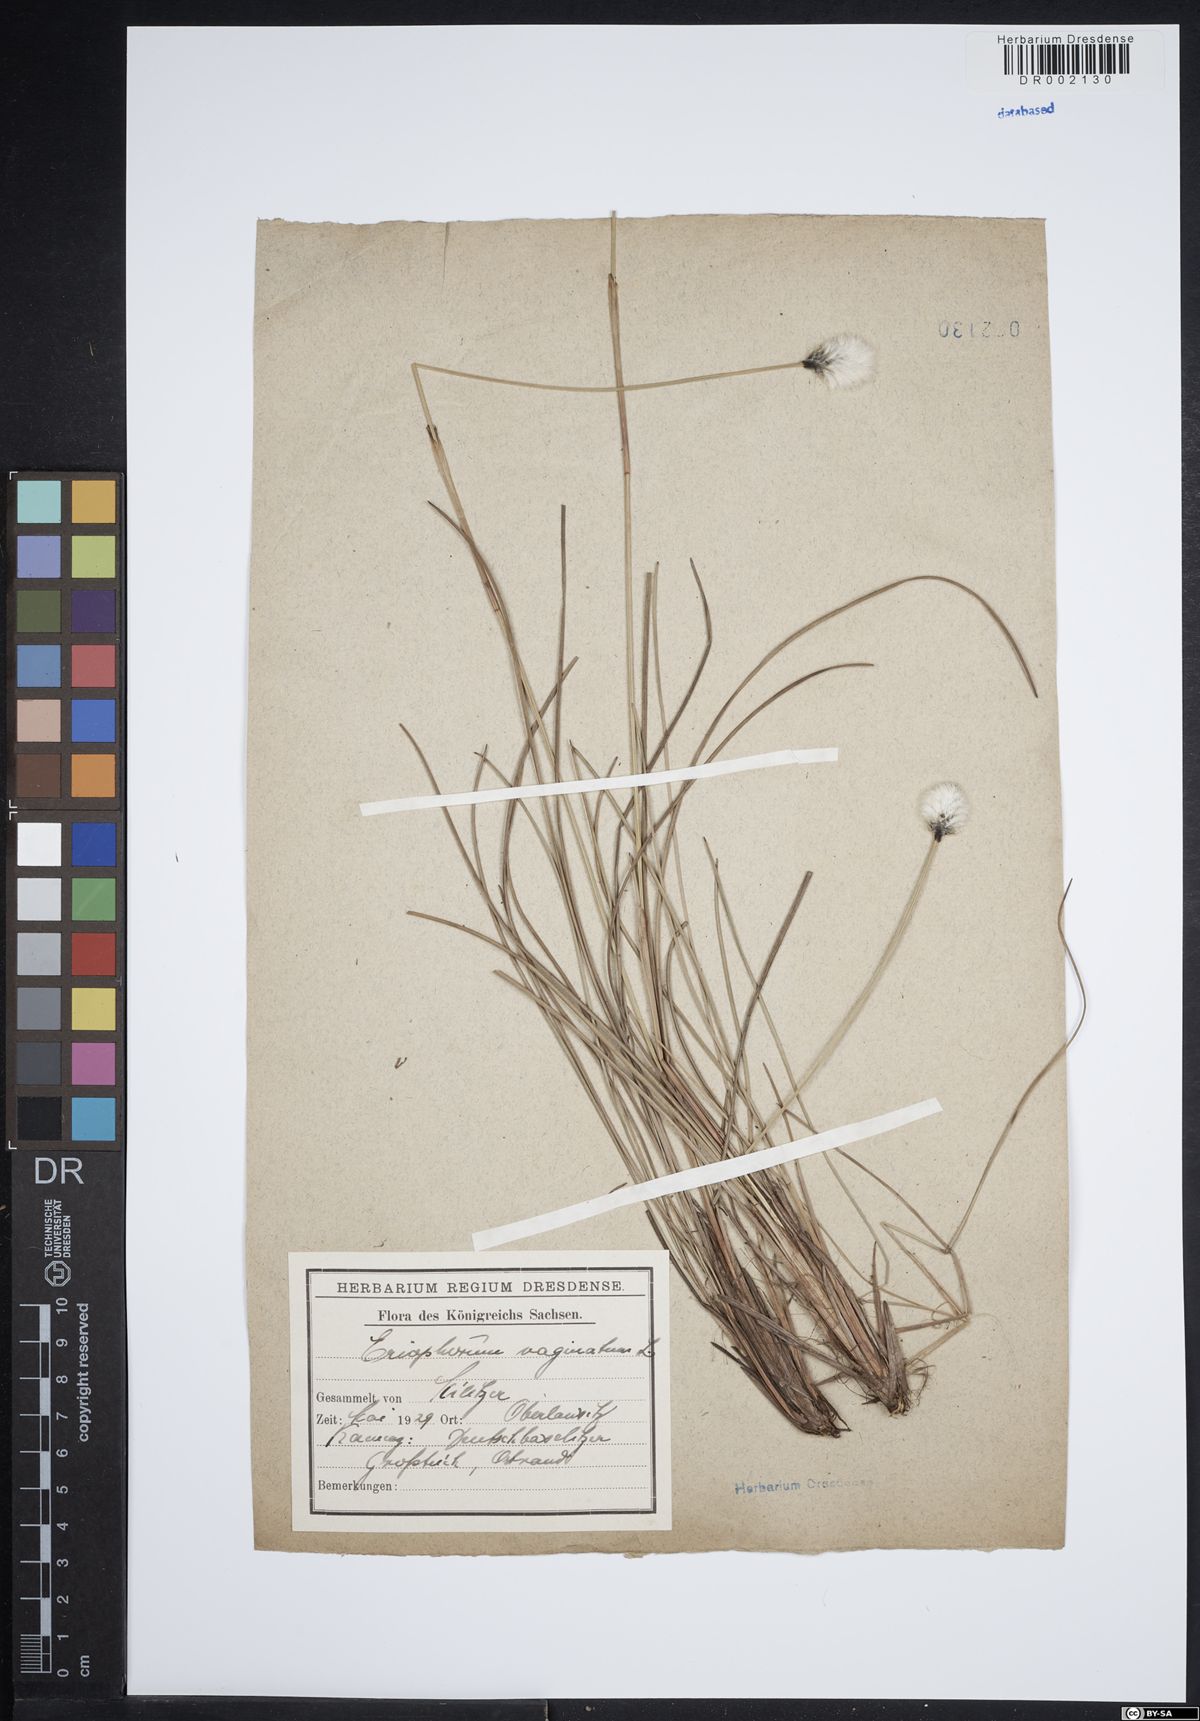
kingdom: Plantae
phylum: Tracheophyta
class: Liliopsida
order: Poales
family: Cyperaceae
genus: Eriophorum
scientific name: Eriophorum vaginatum
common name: Hare's-tail cottongrass
